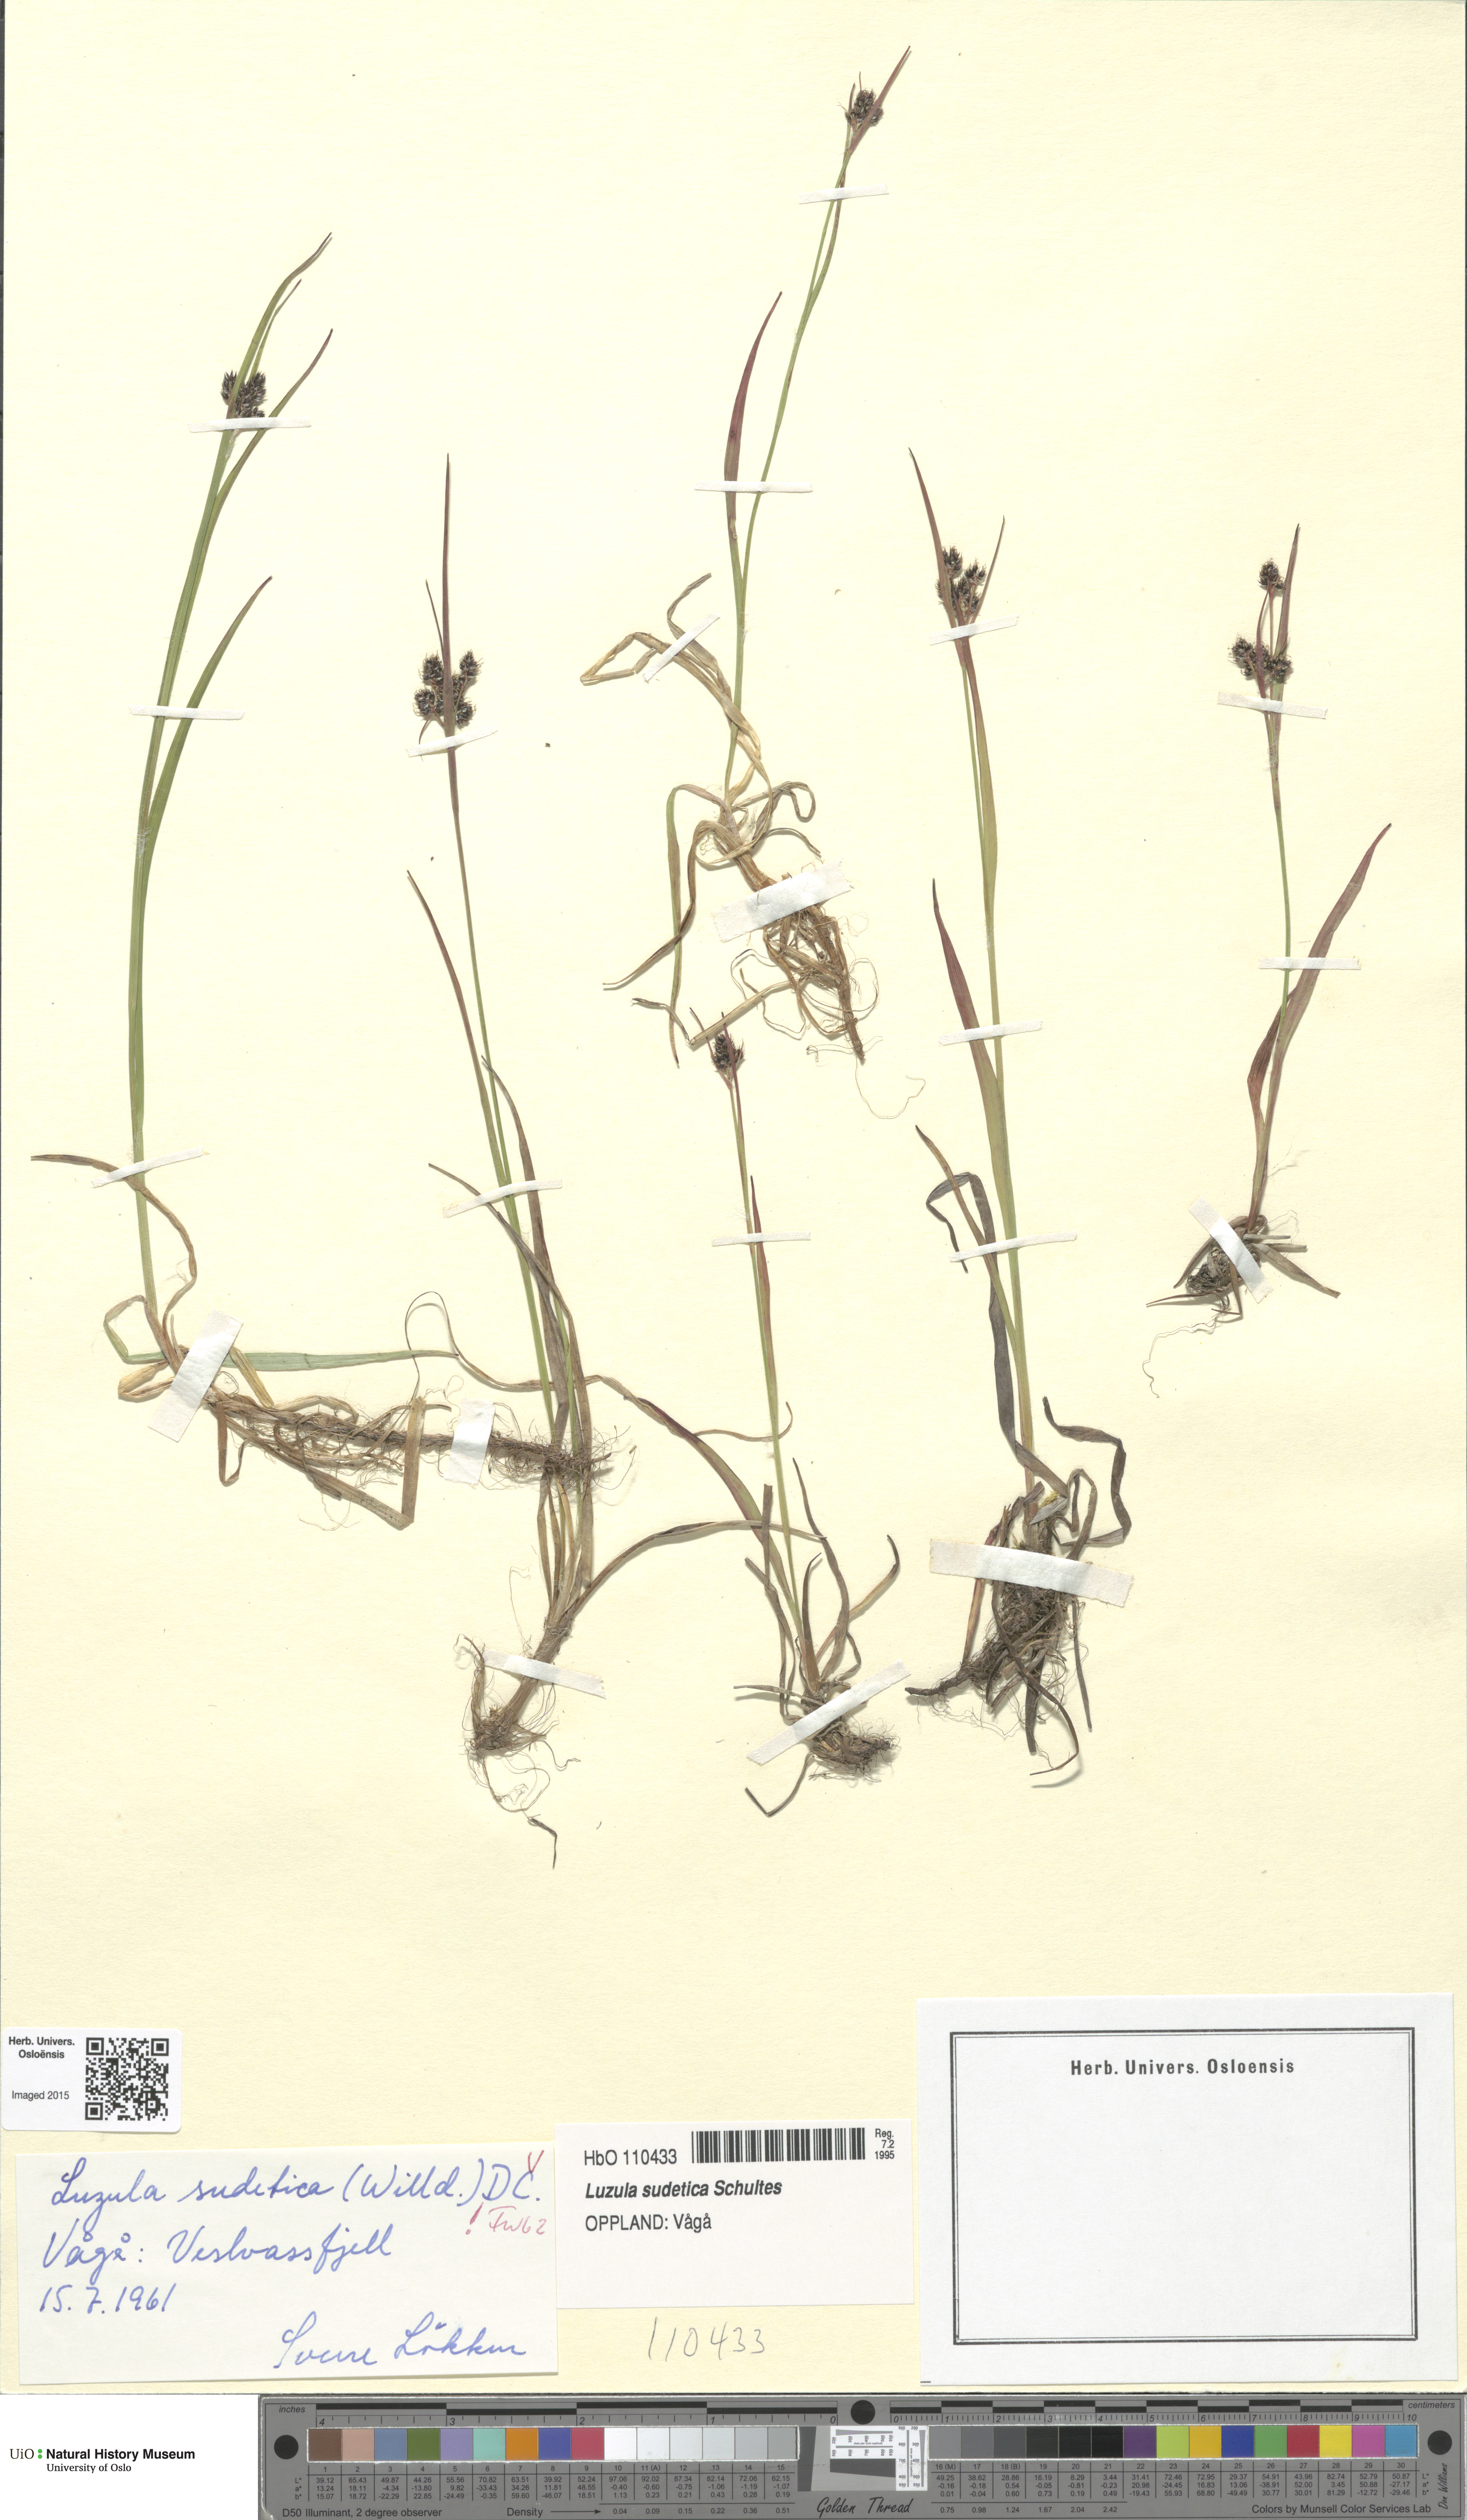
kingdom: Plantae
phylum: Tracheophyta
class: Liliopsida
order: Poales
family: Juncaceae
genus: Luzula
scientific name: Luzula sudetica
